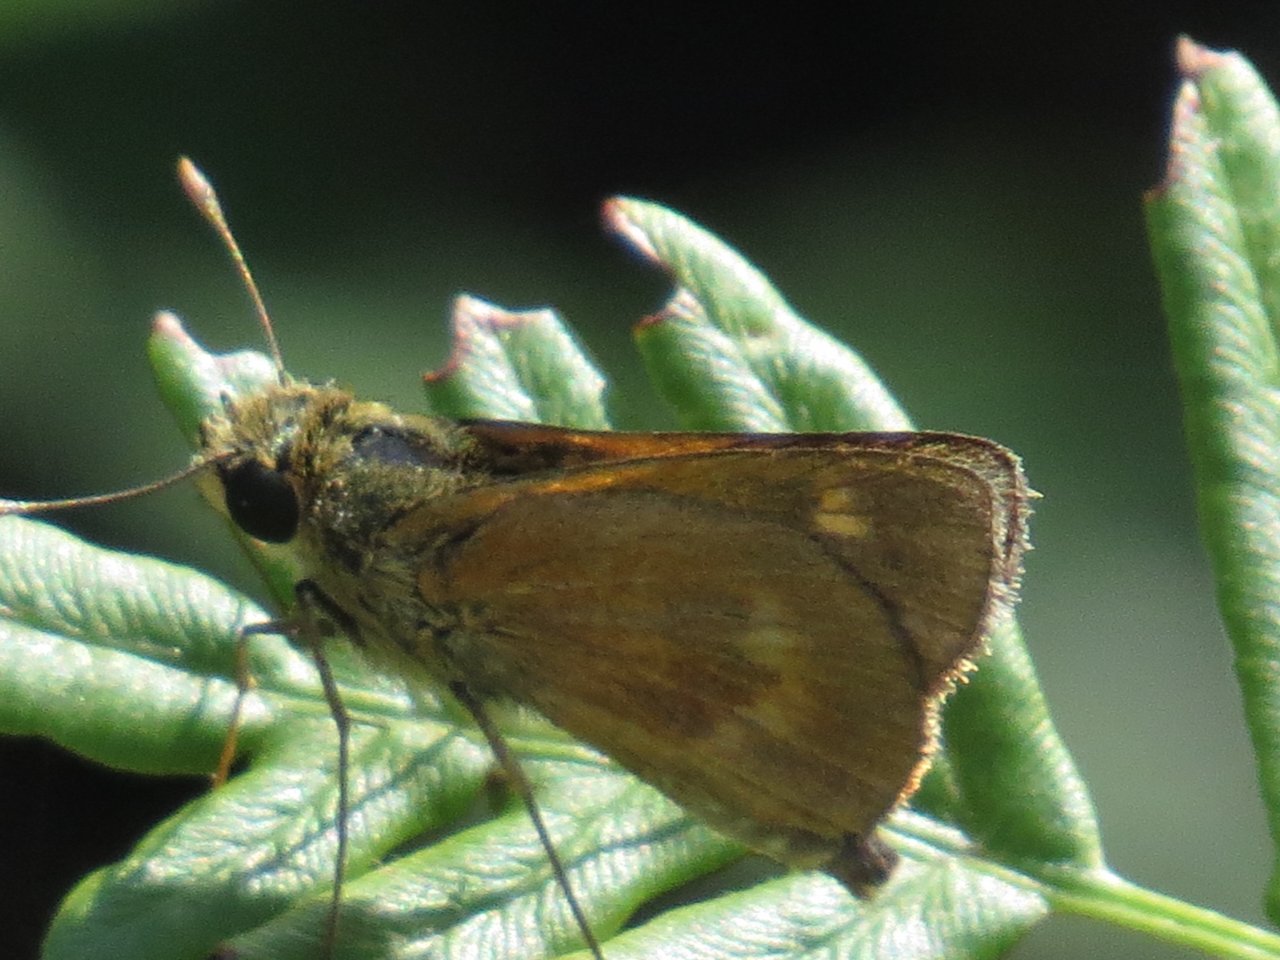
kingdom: Animalia
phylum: Arthropoda
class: Insecta
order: Lepidoptera
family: Hesperiidae
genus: Polites
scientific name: Polites egeremet
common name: Northern Broken-Dash
